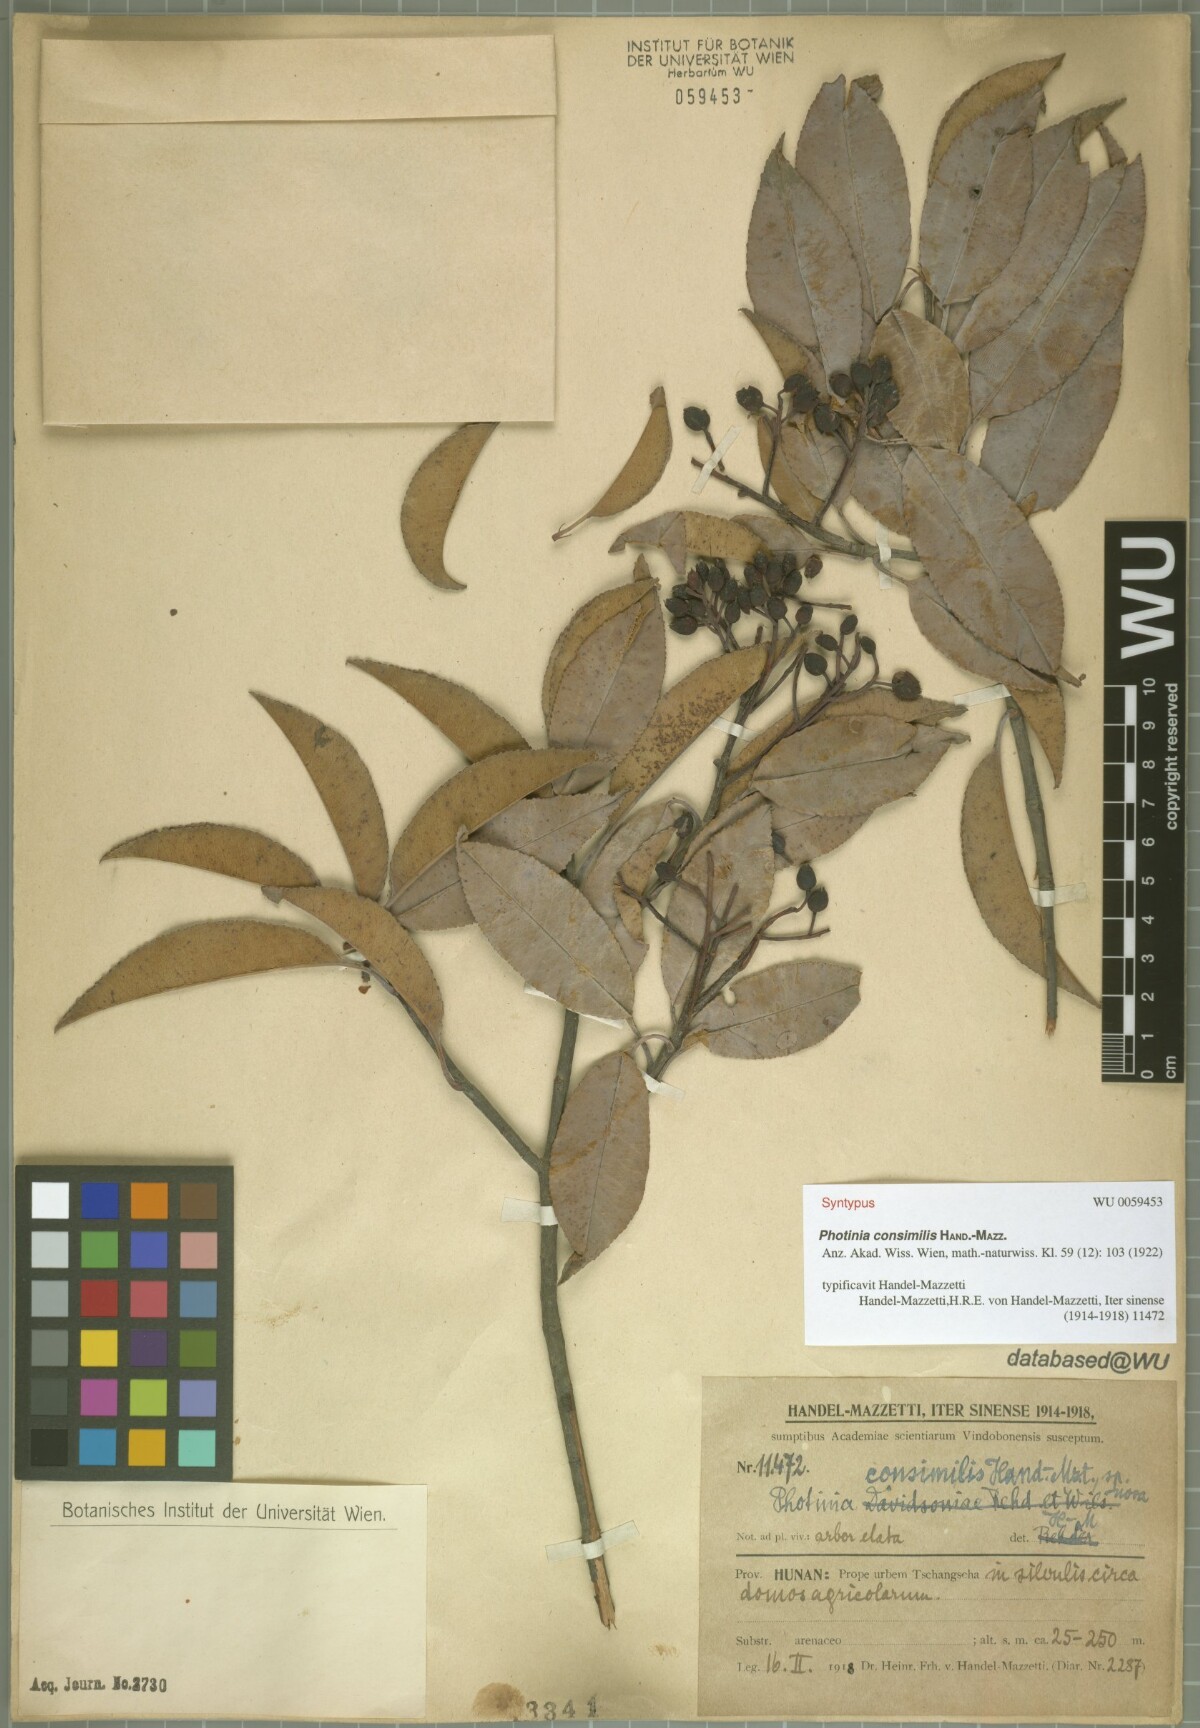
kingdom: Plantae
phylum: Tracheophyta
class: Magnoliopsida
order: Rosales
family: Rosaceae
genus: Photinia
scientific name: Photinia prunifolia
